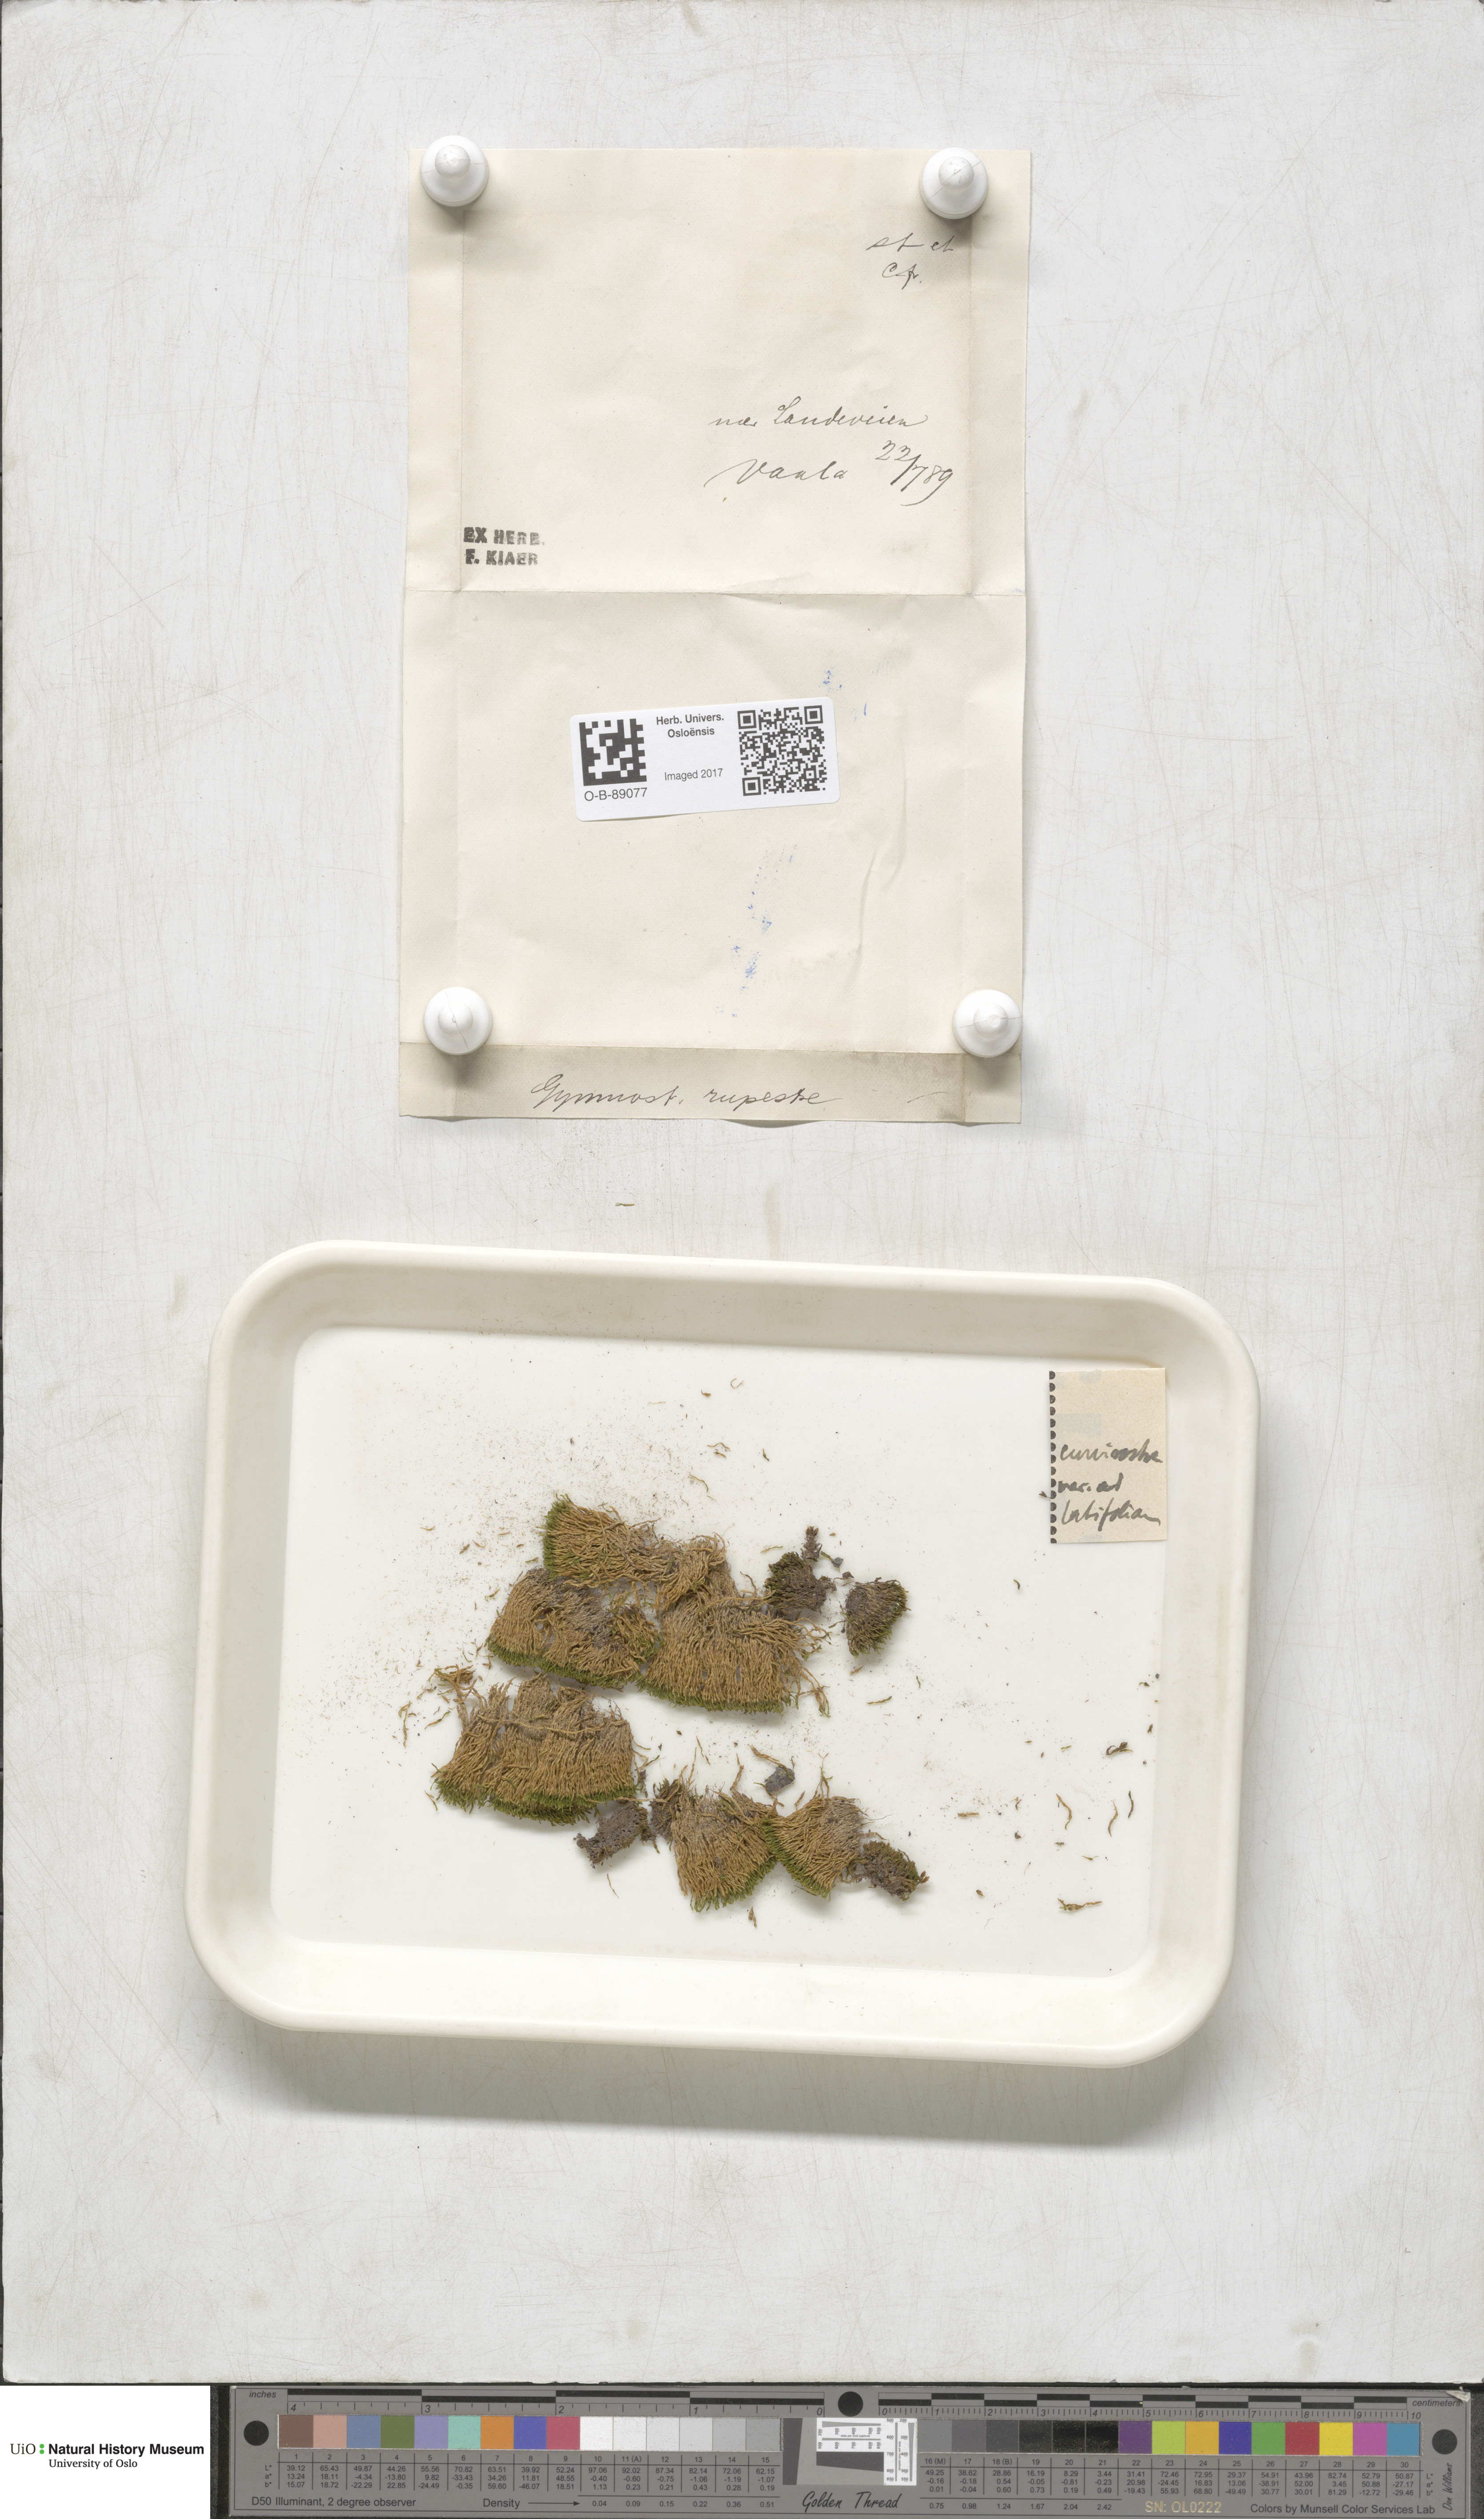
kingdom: Plantae
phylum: Bryophyta
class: Bryopsida
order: Pottiales
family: Pottiaceae
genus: Gymnostomum
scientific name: Gymnostomum aeruginosum
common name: Verdigris tufa-moss
